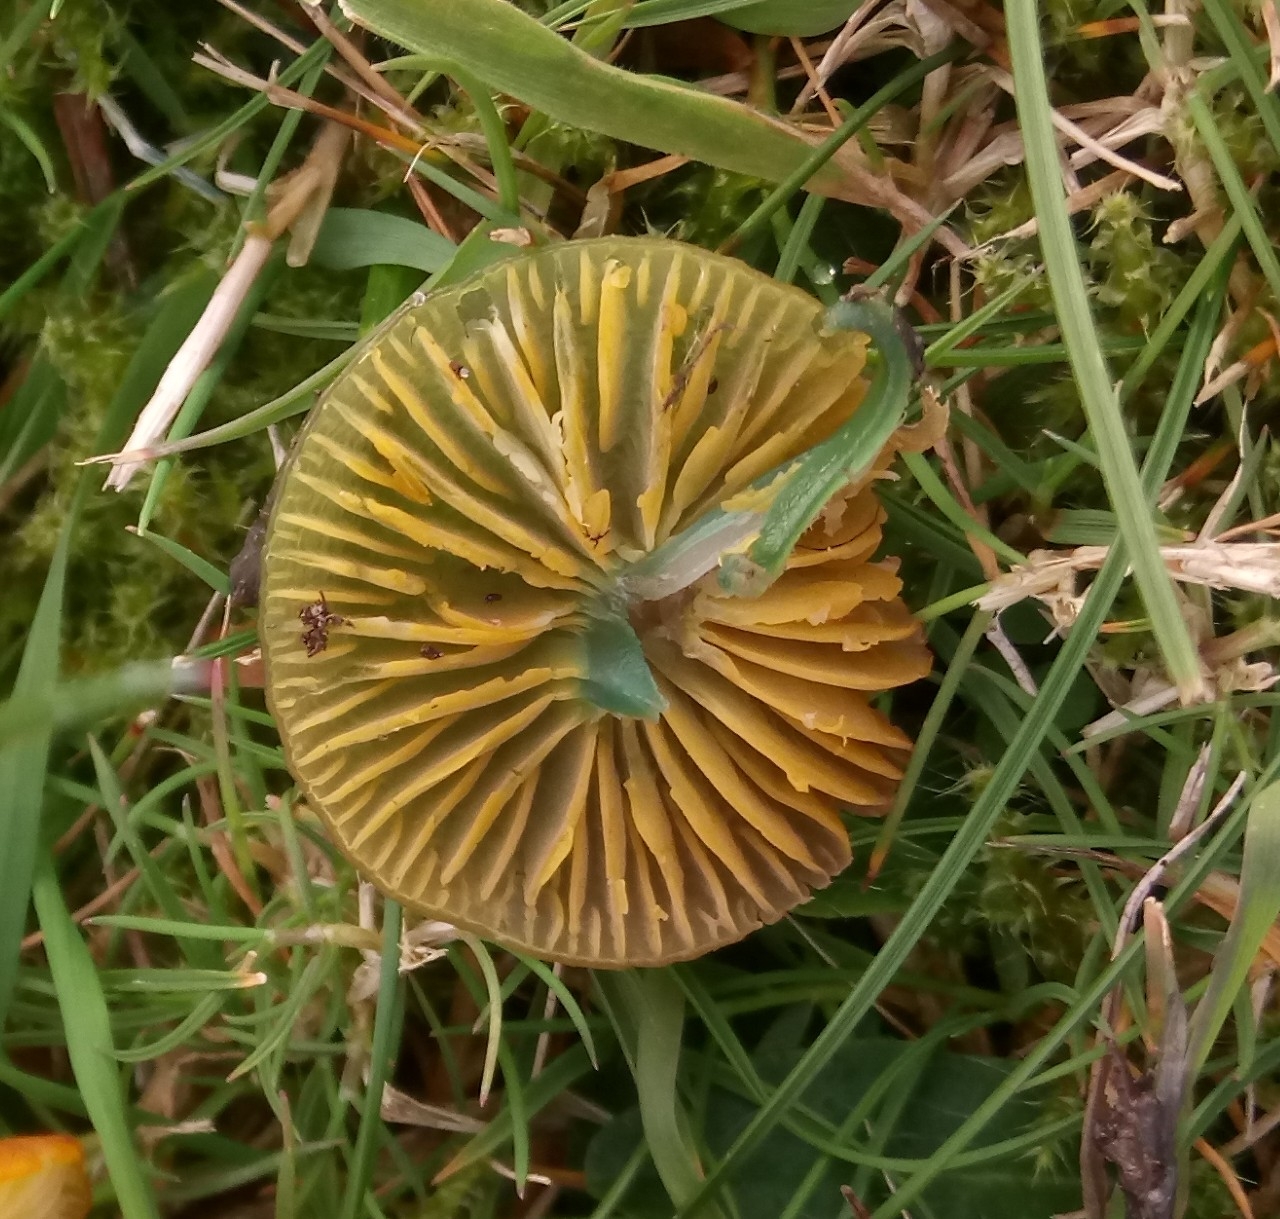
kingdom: Fungi
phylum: Basidiomycota
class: Agaricomycetes
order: Agaricales
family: Hygrophoraceae
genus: Gliophorus
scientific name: Gliophorus psittacinus
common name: papegøje-vokshat
